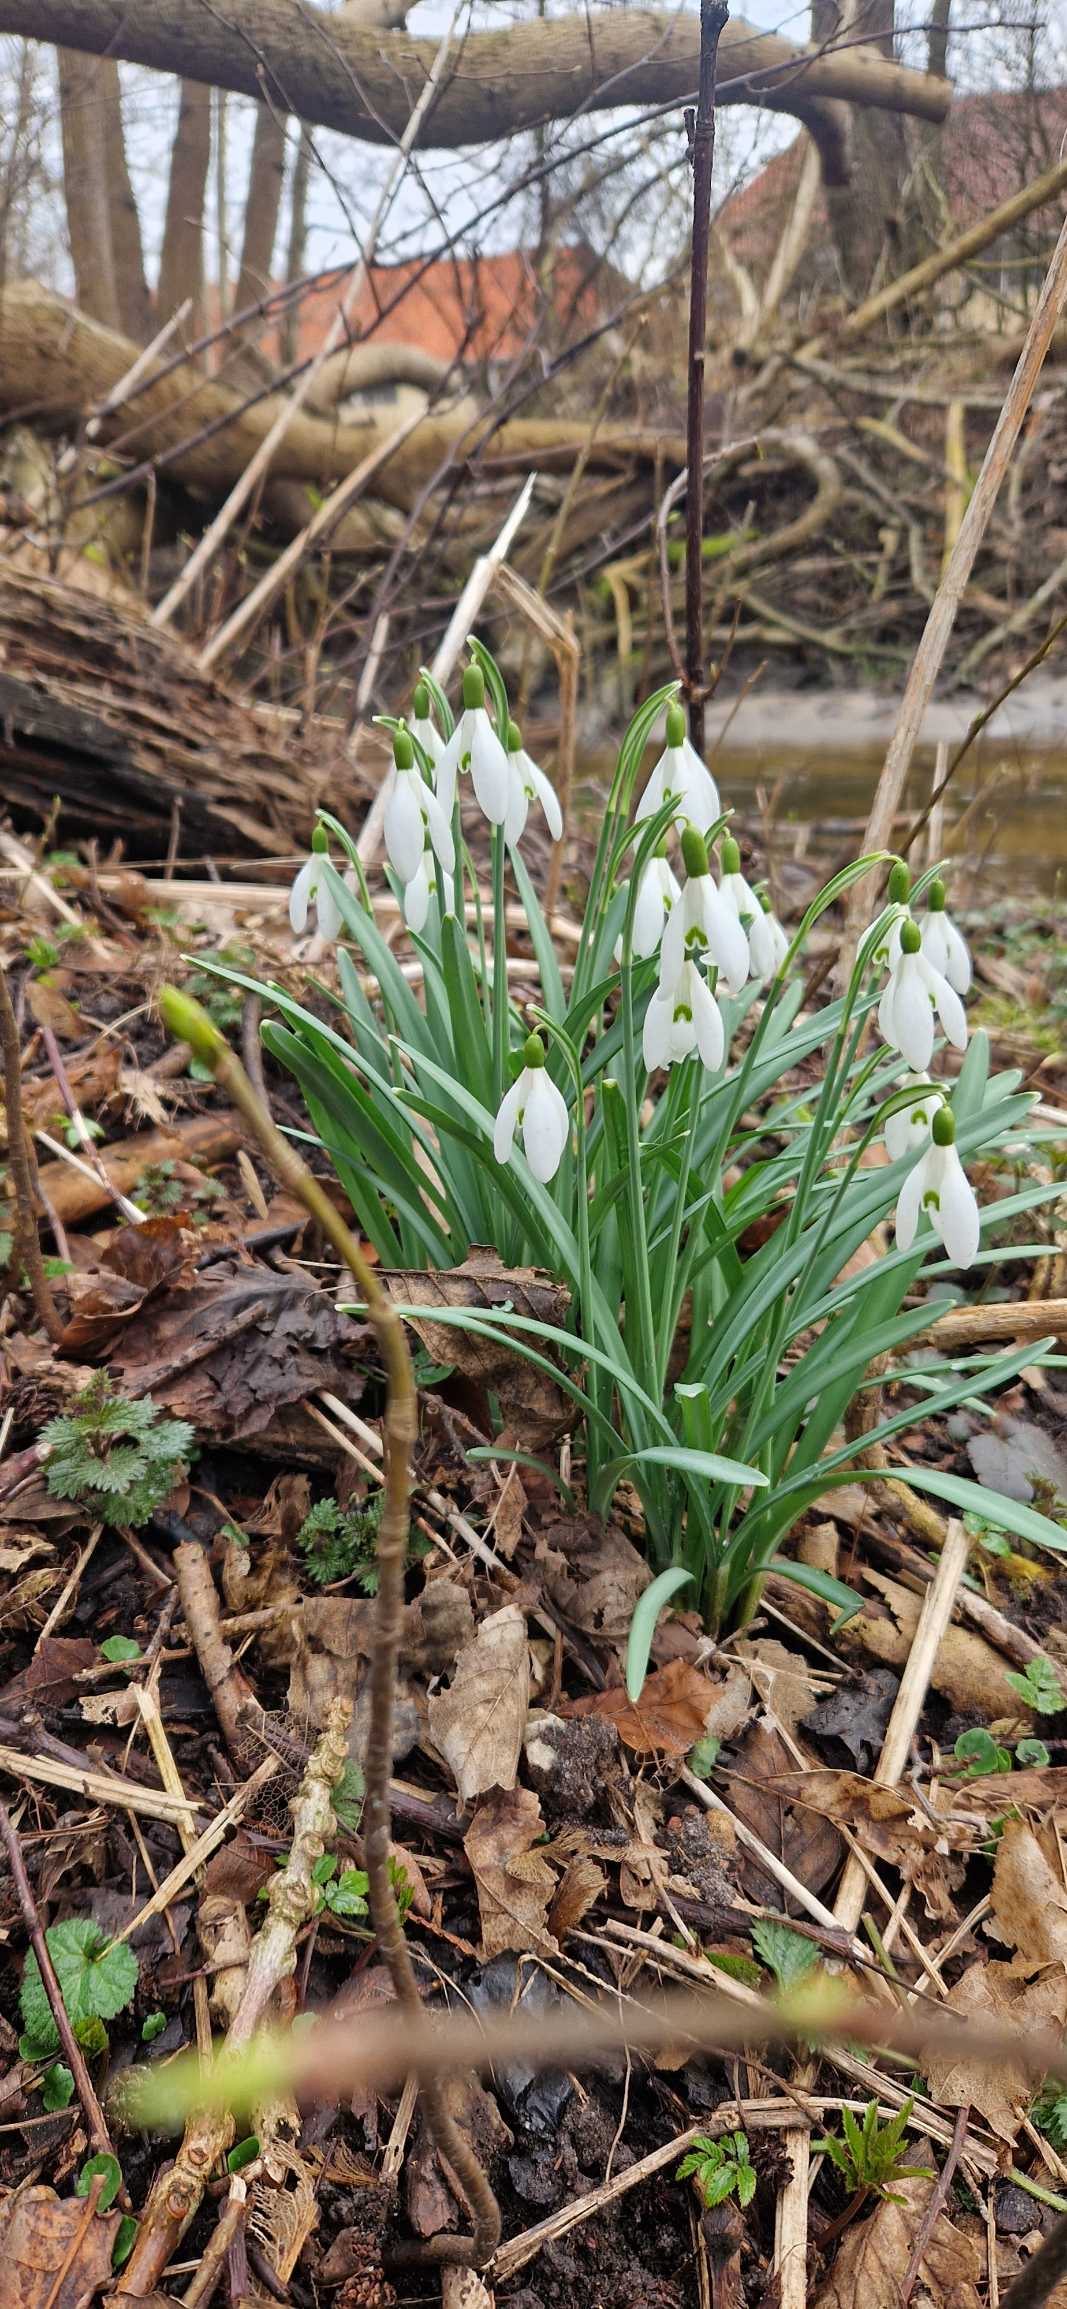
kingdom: Plantae
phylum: Tracheophyta
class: Liliopsida
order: Asparagales
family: Amaryllidaceae
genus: Galanthus
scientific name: Galanthus nivalis
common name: Vintergæk
